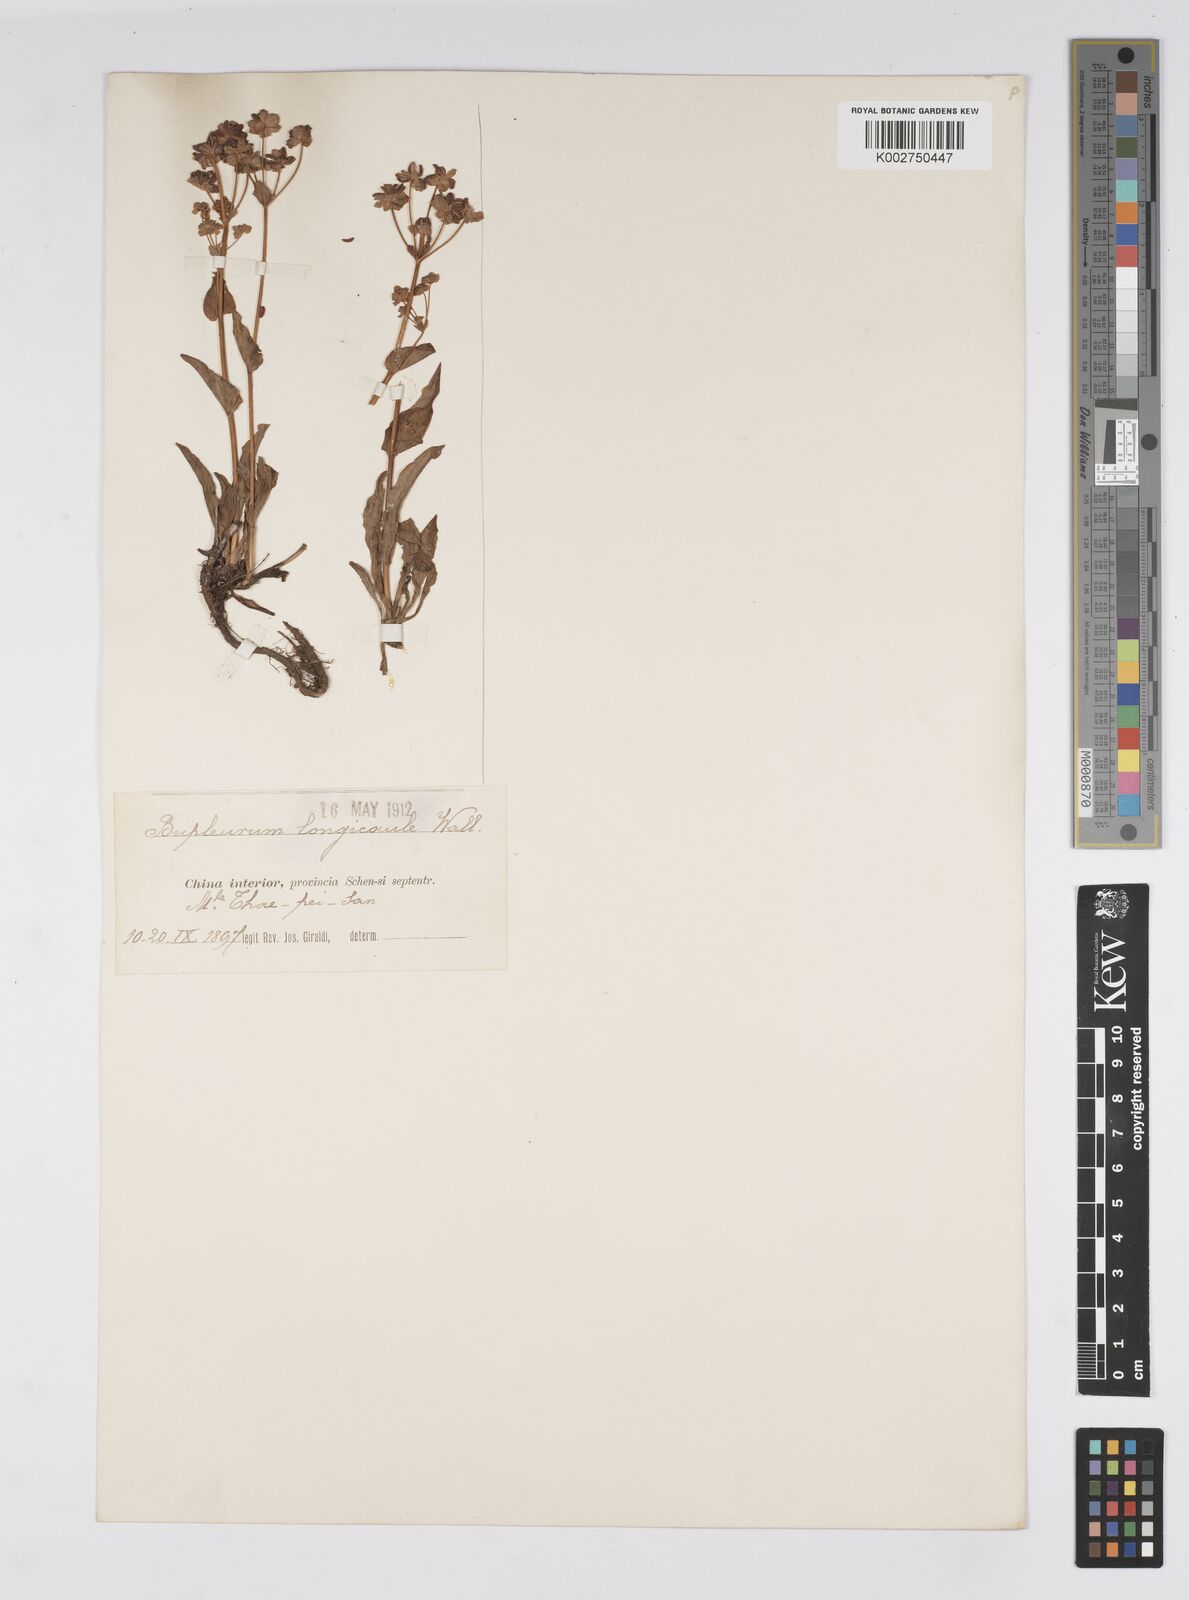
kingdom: Plantae
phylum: Tracheophyta
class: Magnoliopsida
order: Apiales
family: Apiaceae
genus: Bupleurum
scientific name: Bupleurum longicaule
